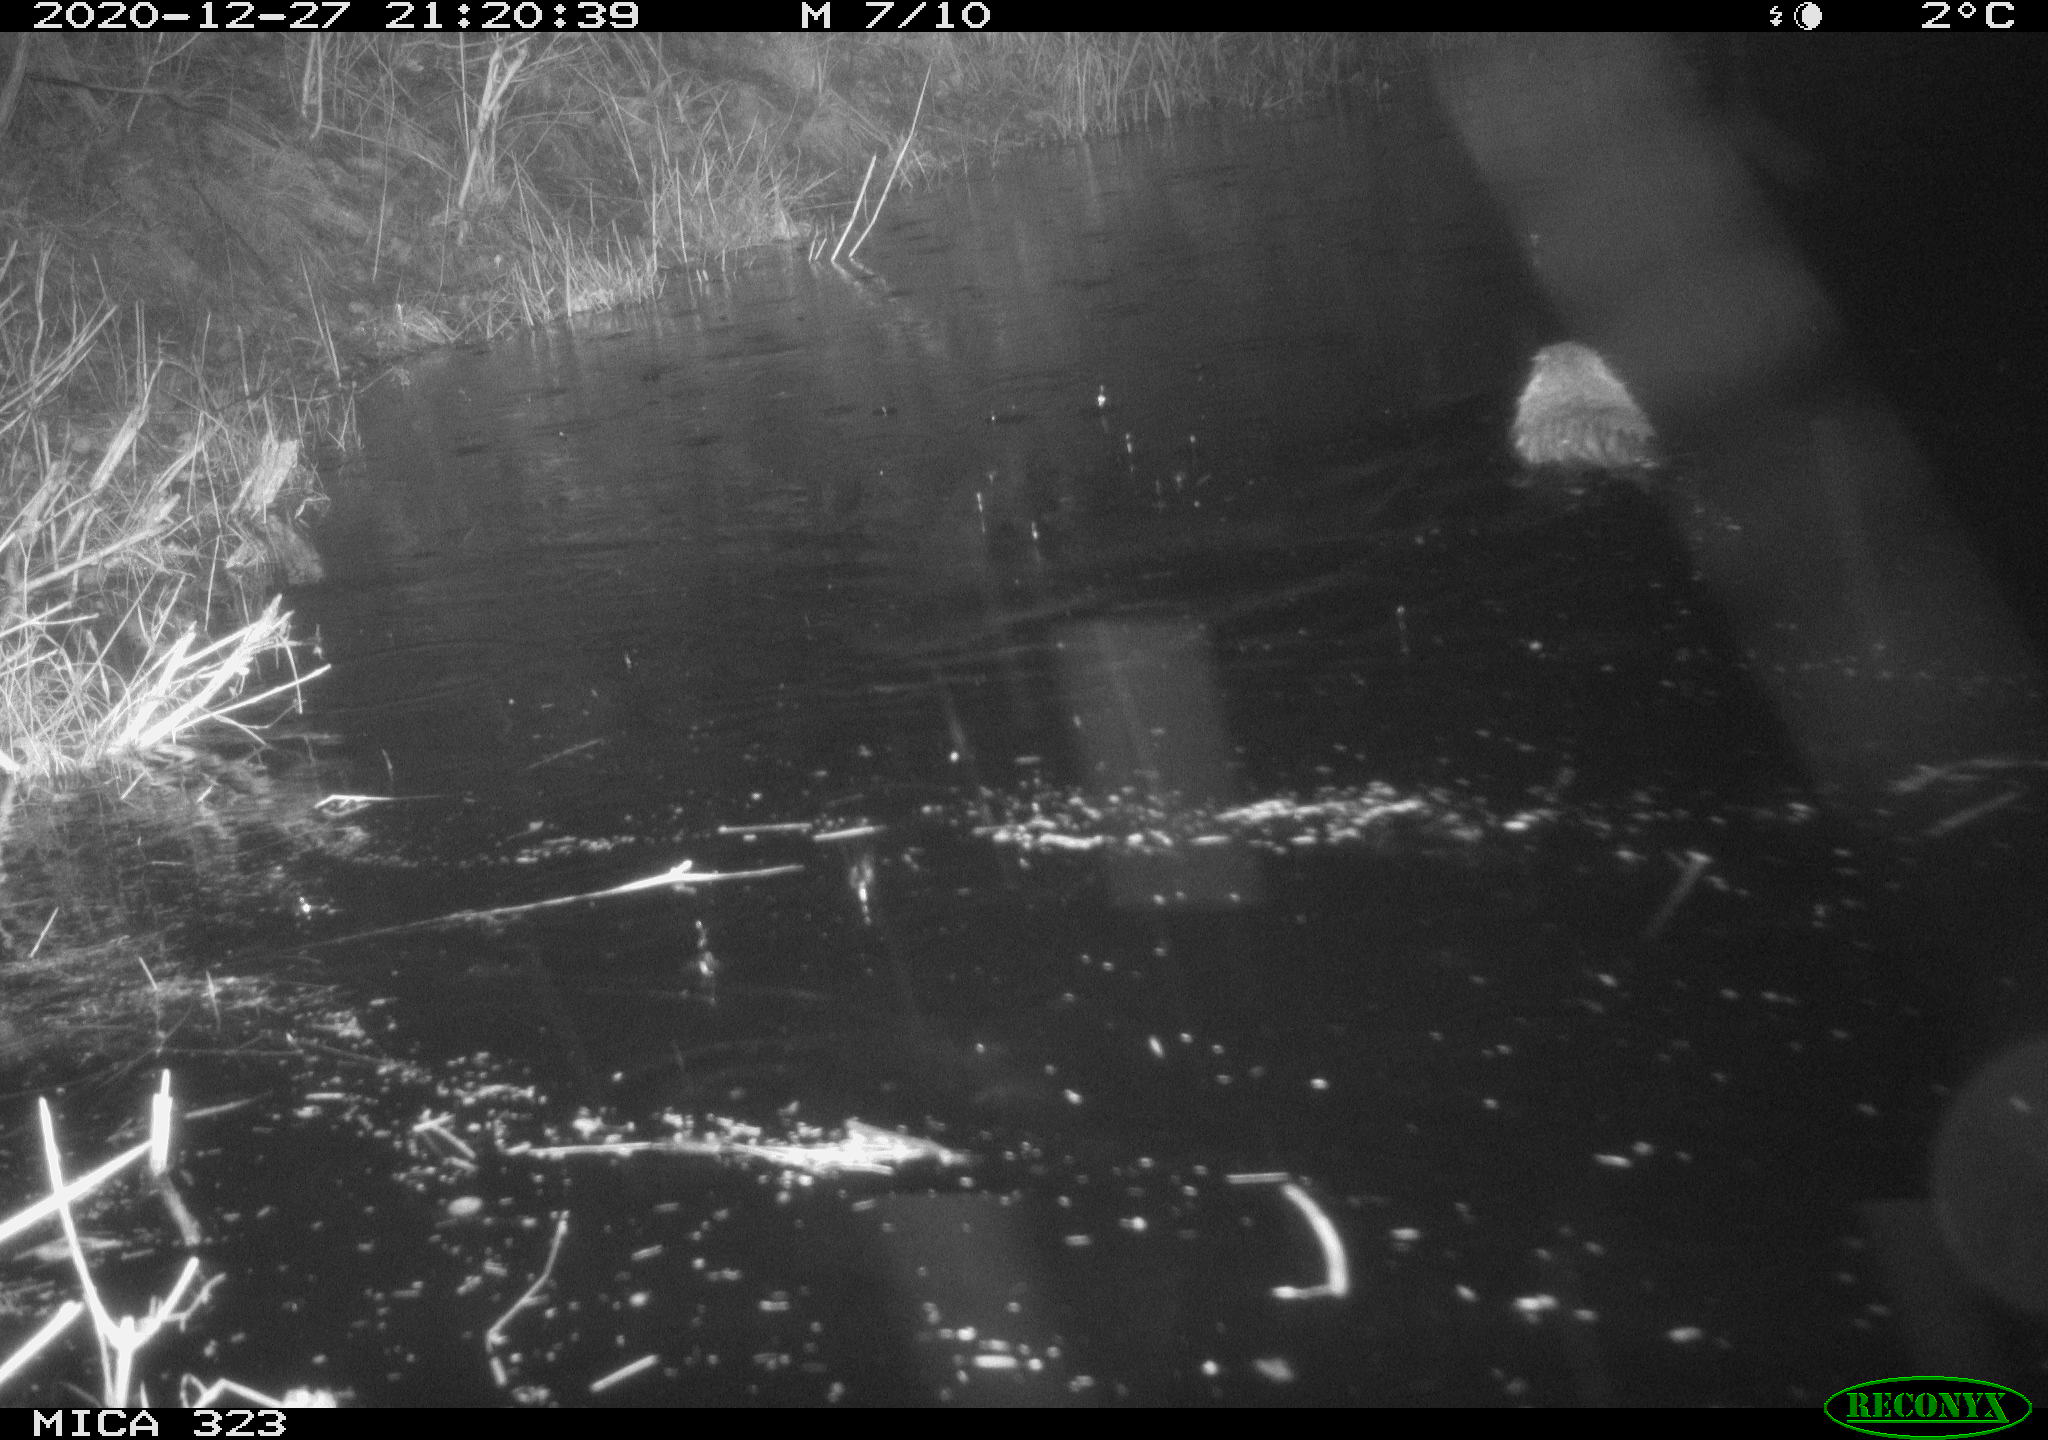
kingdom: Animalia
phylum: Chordata
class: Mammalia
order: Rodentia
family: Myocastoridae
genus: Myocastor
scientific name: Myocastor coypus
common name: Coypu
